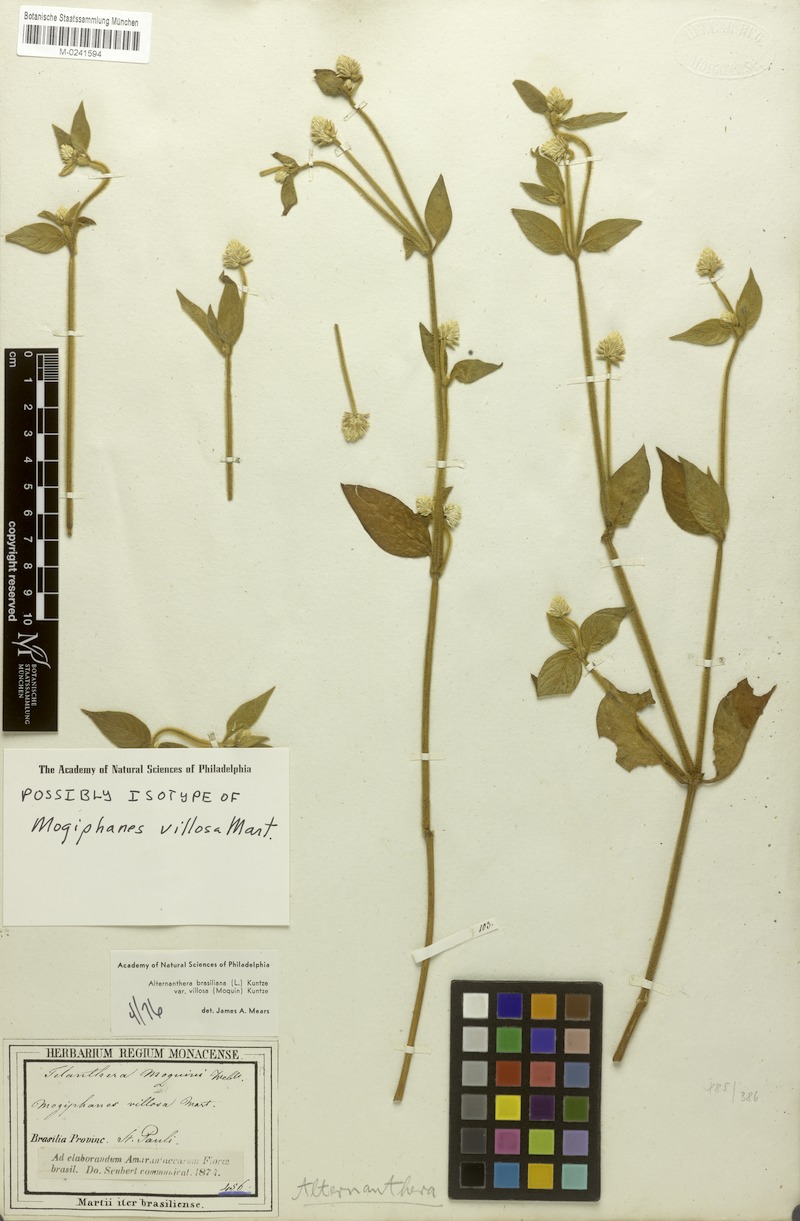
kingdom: Plantae
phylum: Tracheophyta
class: Magnoliopsida
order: Caryophyllales
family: Amaranthaceae
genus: Alternanthera
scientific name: Alternanthera ramosissima
